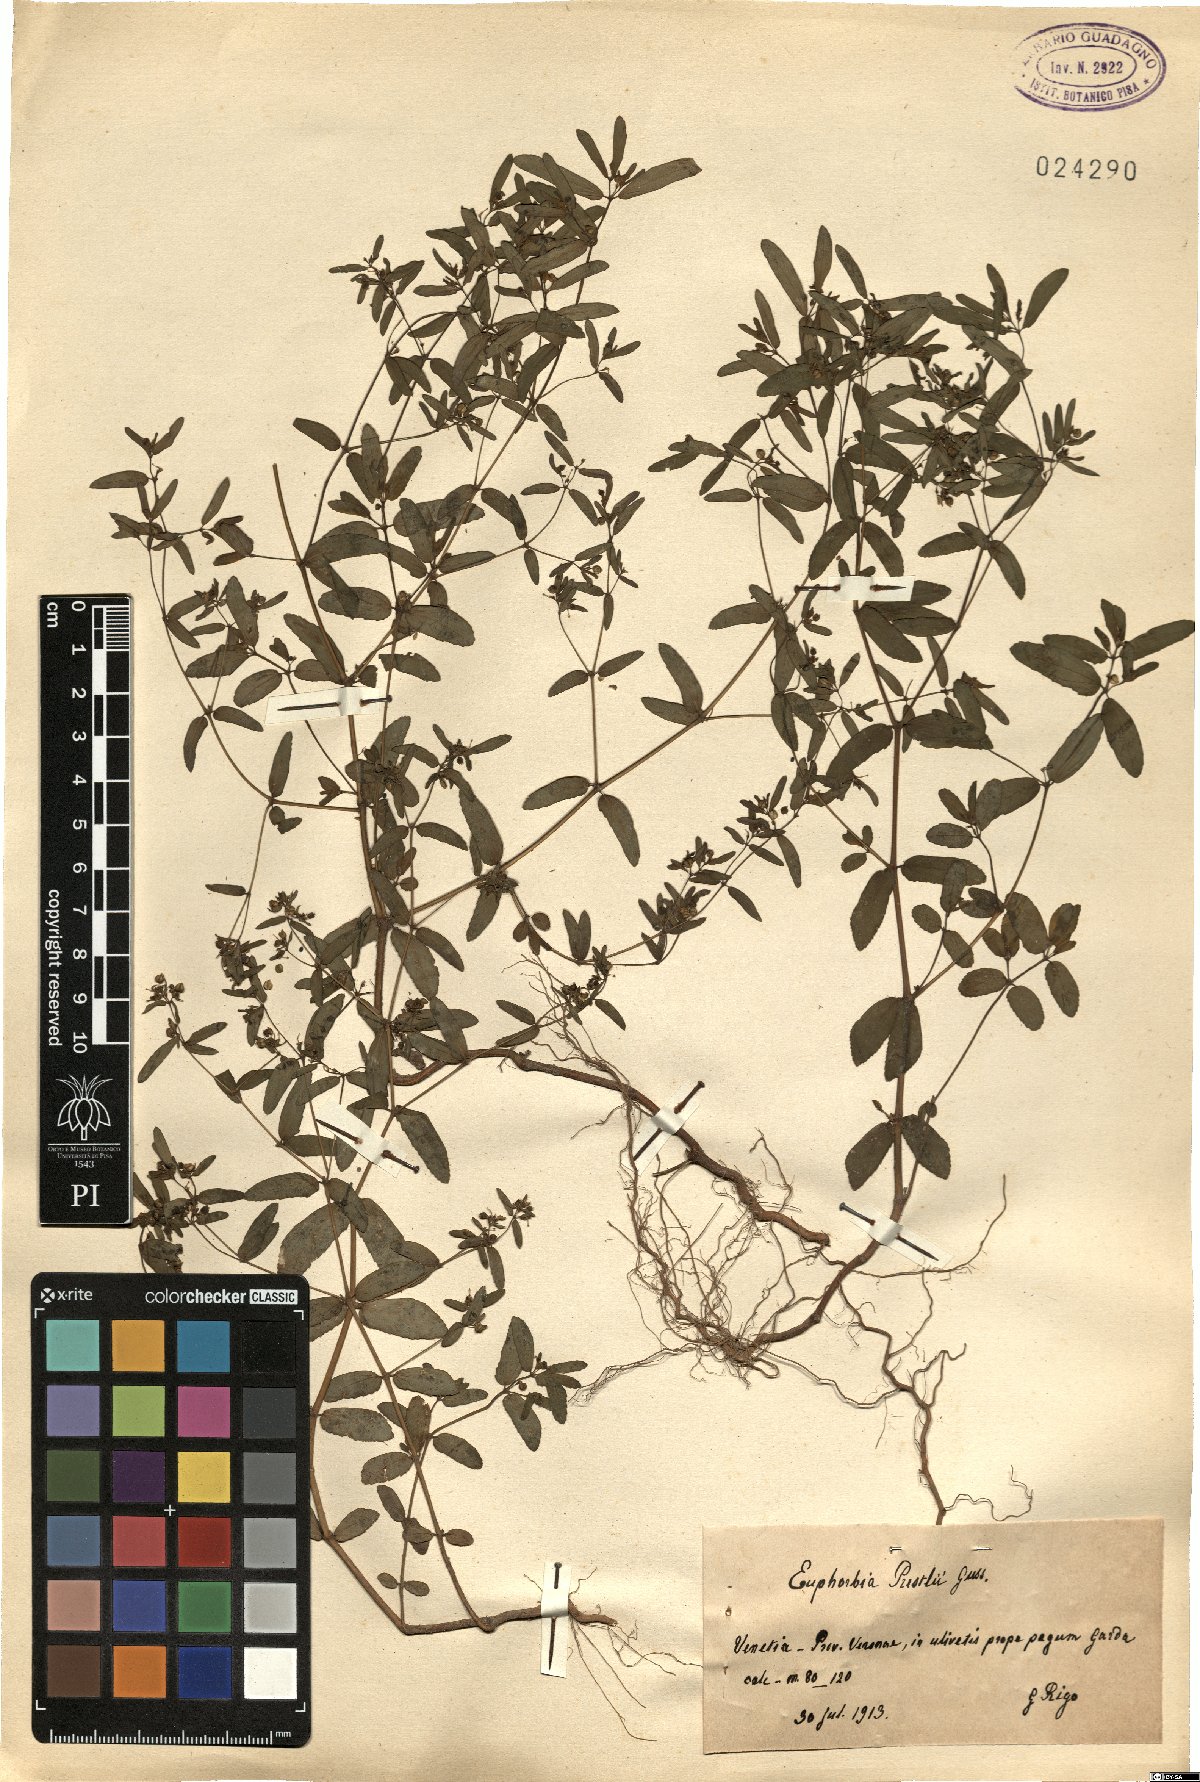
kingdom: Plantae
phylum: Tracheophyta
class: Magnoliopsida
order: Malpighiales
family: Euphorbiaceae
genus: Euphorbia
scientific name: Euphorbia nutans
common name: Eyebane
